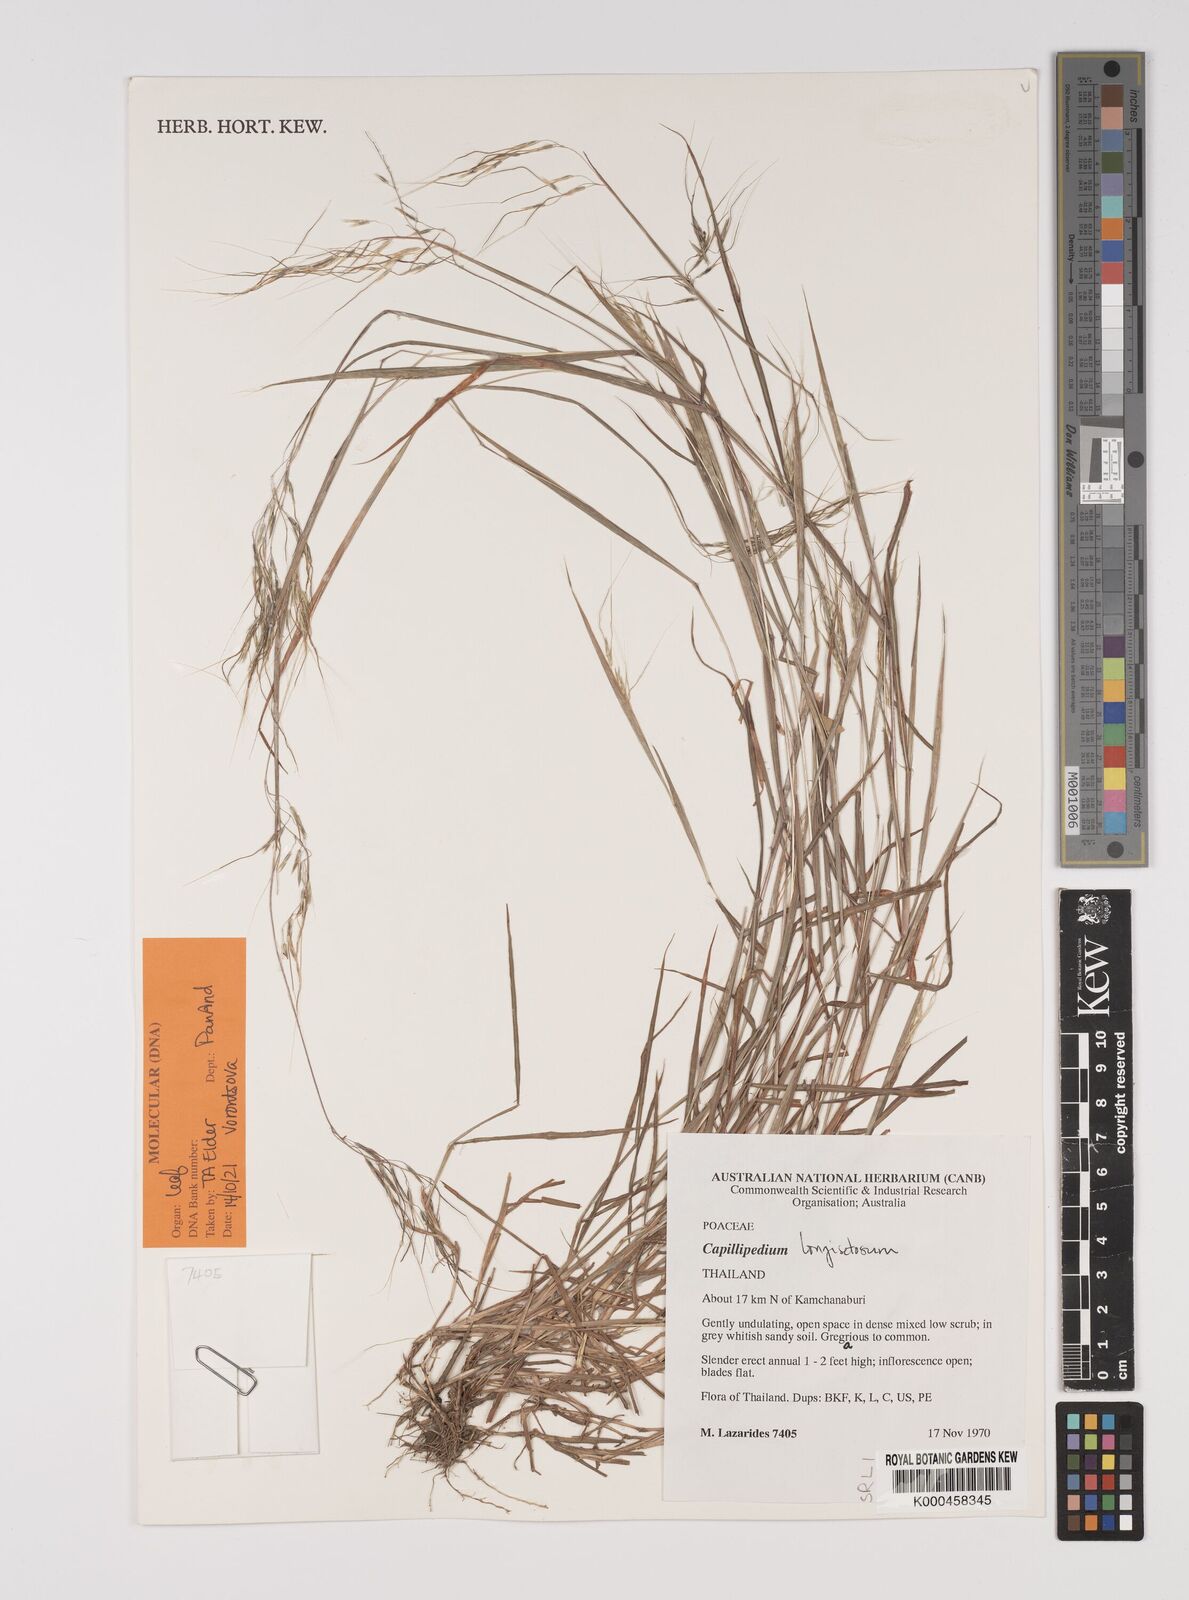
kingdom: Plantae
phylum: Tracheophyta
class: Liliopsida
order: Poales
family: Poaceae
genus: Capillipedium
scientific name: Capillipedium laoticum
